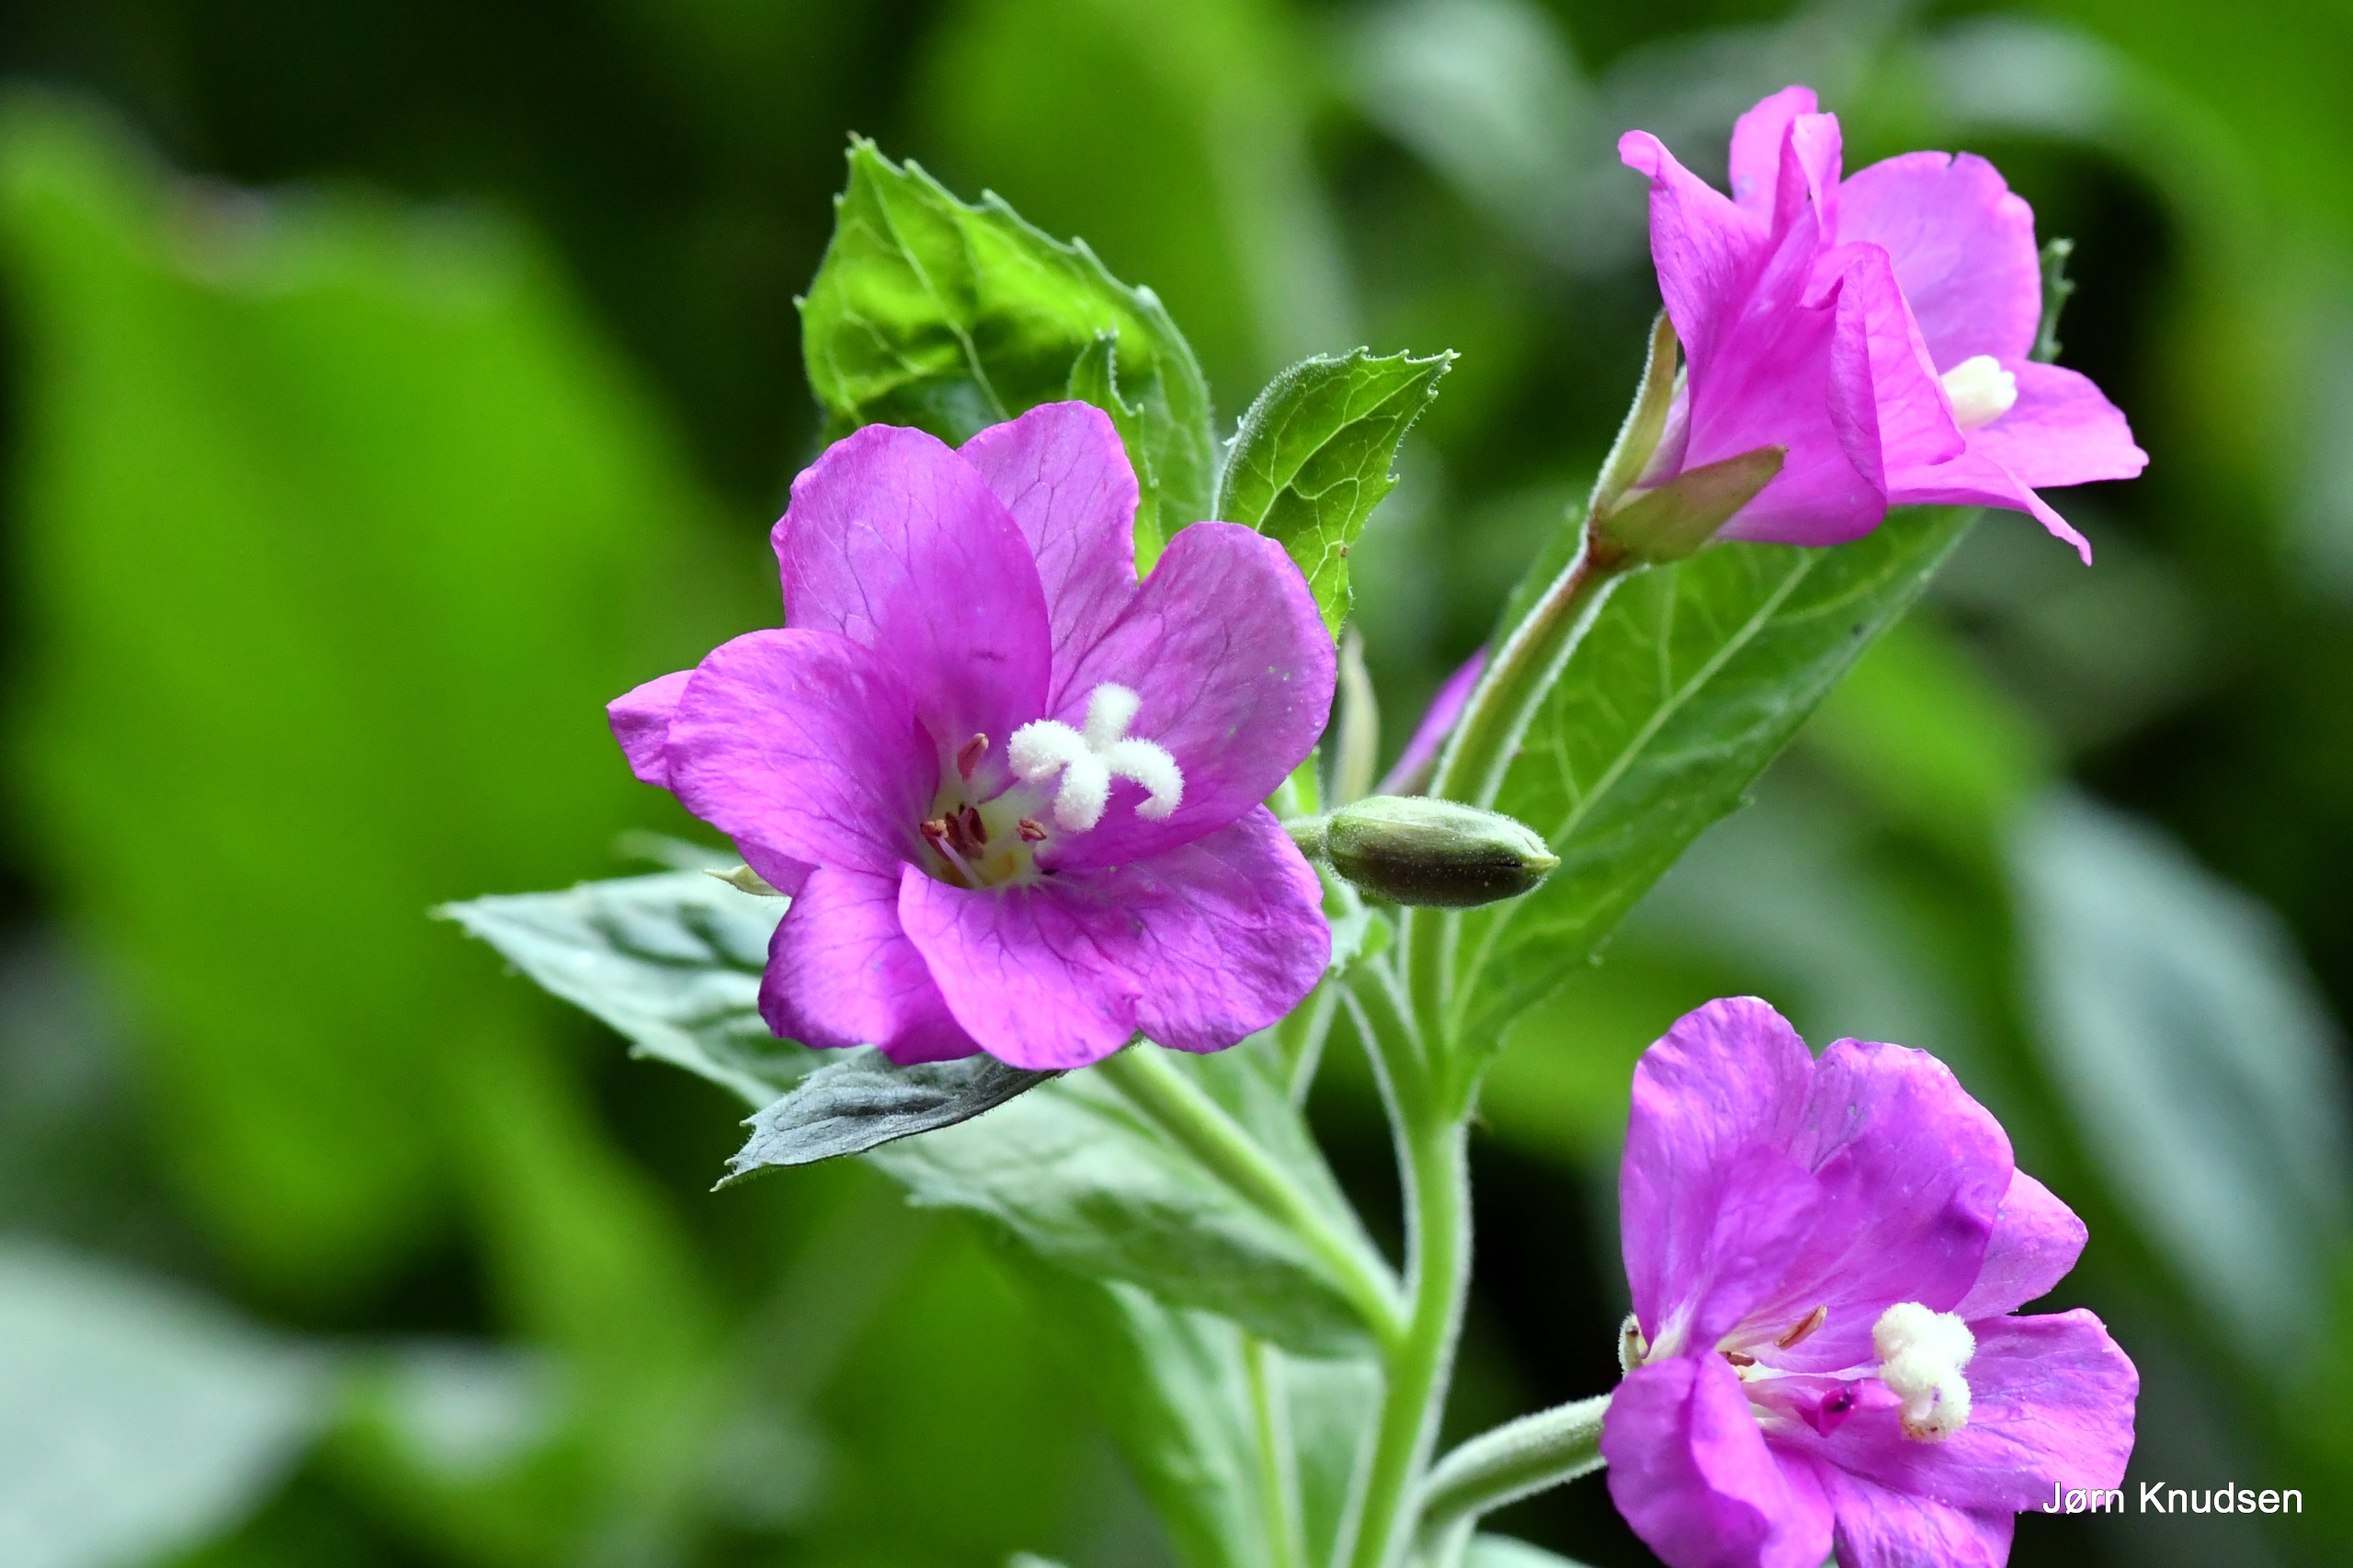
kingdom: Plantae
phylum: Tracheophyta
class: Magnoliopsida
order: Myrtales
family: Onagraceae
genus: Epilobium
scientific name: Epilobium hirsutum
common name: Lådden dueurt
